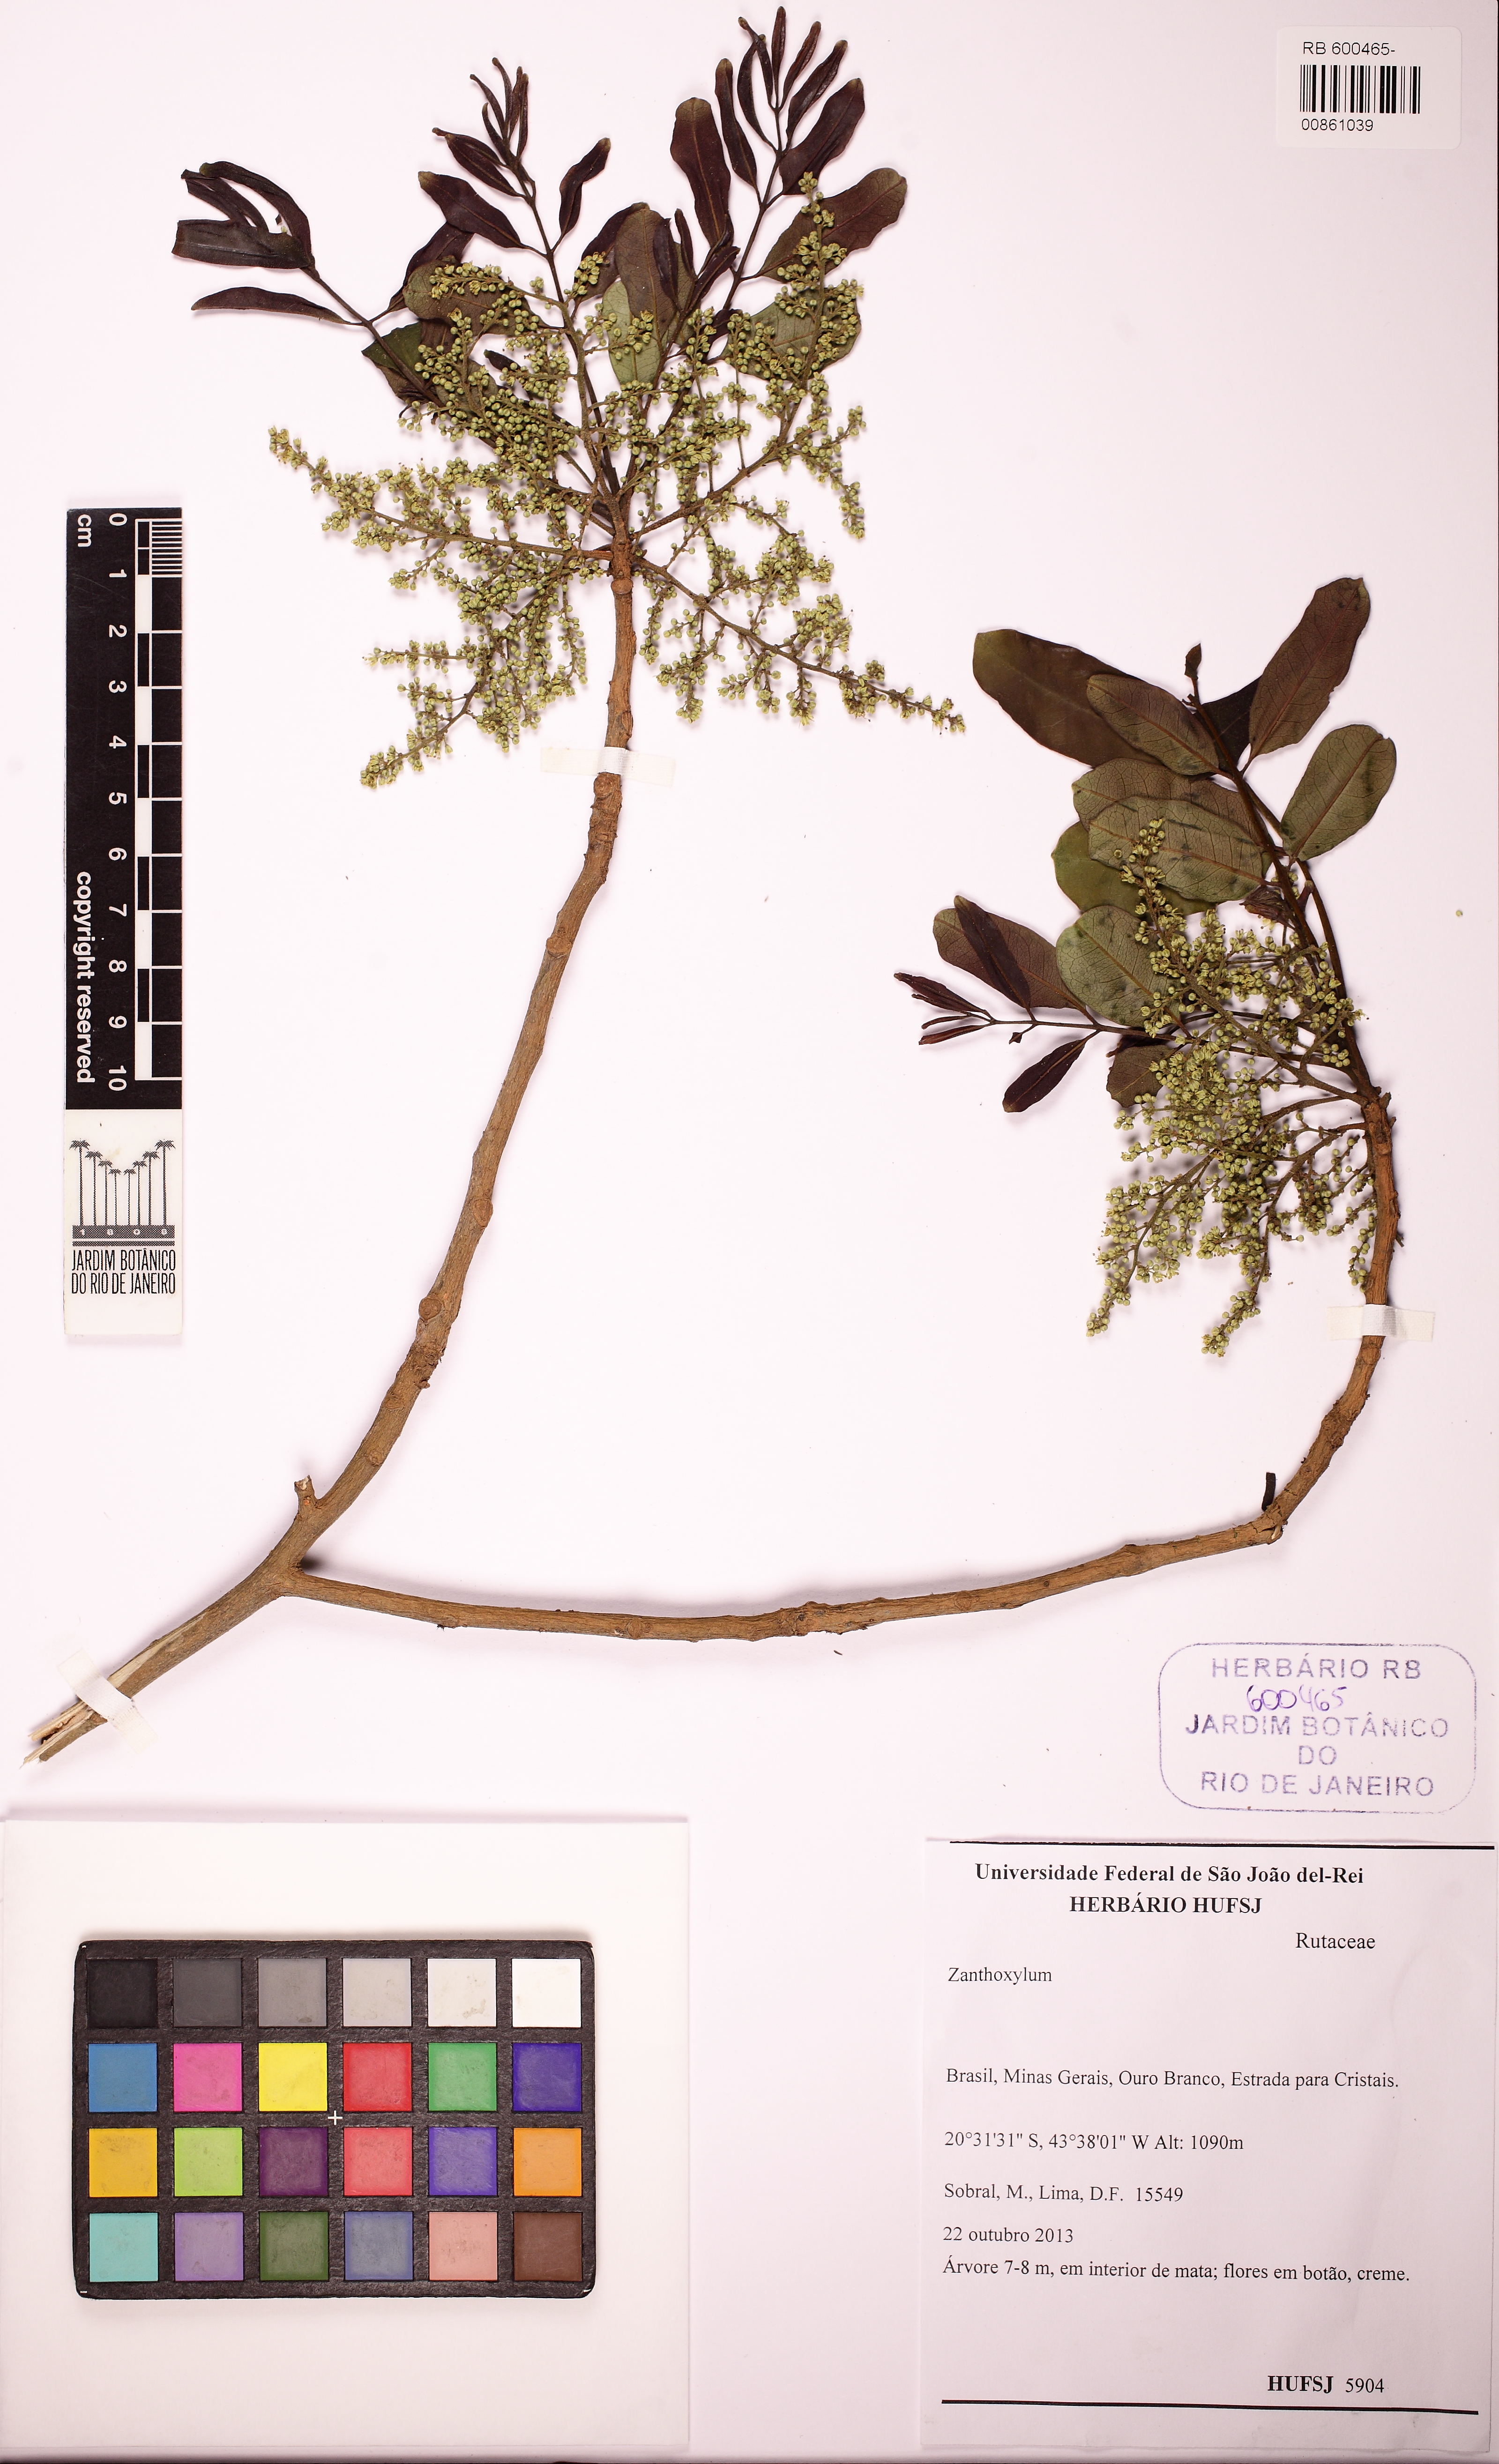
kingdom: Plantae
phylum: Tracheophyta
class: Magnoliopsida
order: Sapindales
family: Rutaceae
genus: Zanthoxylum
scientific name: Zanthoxylum
